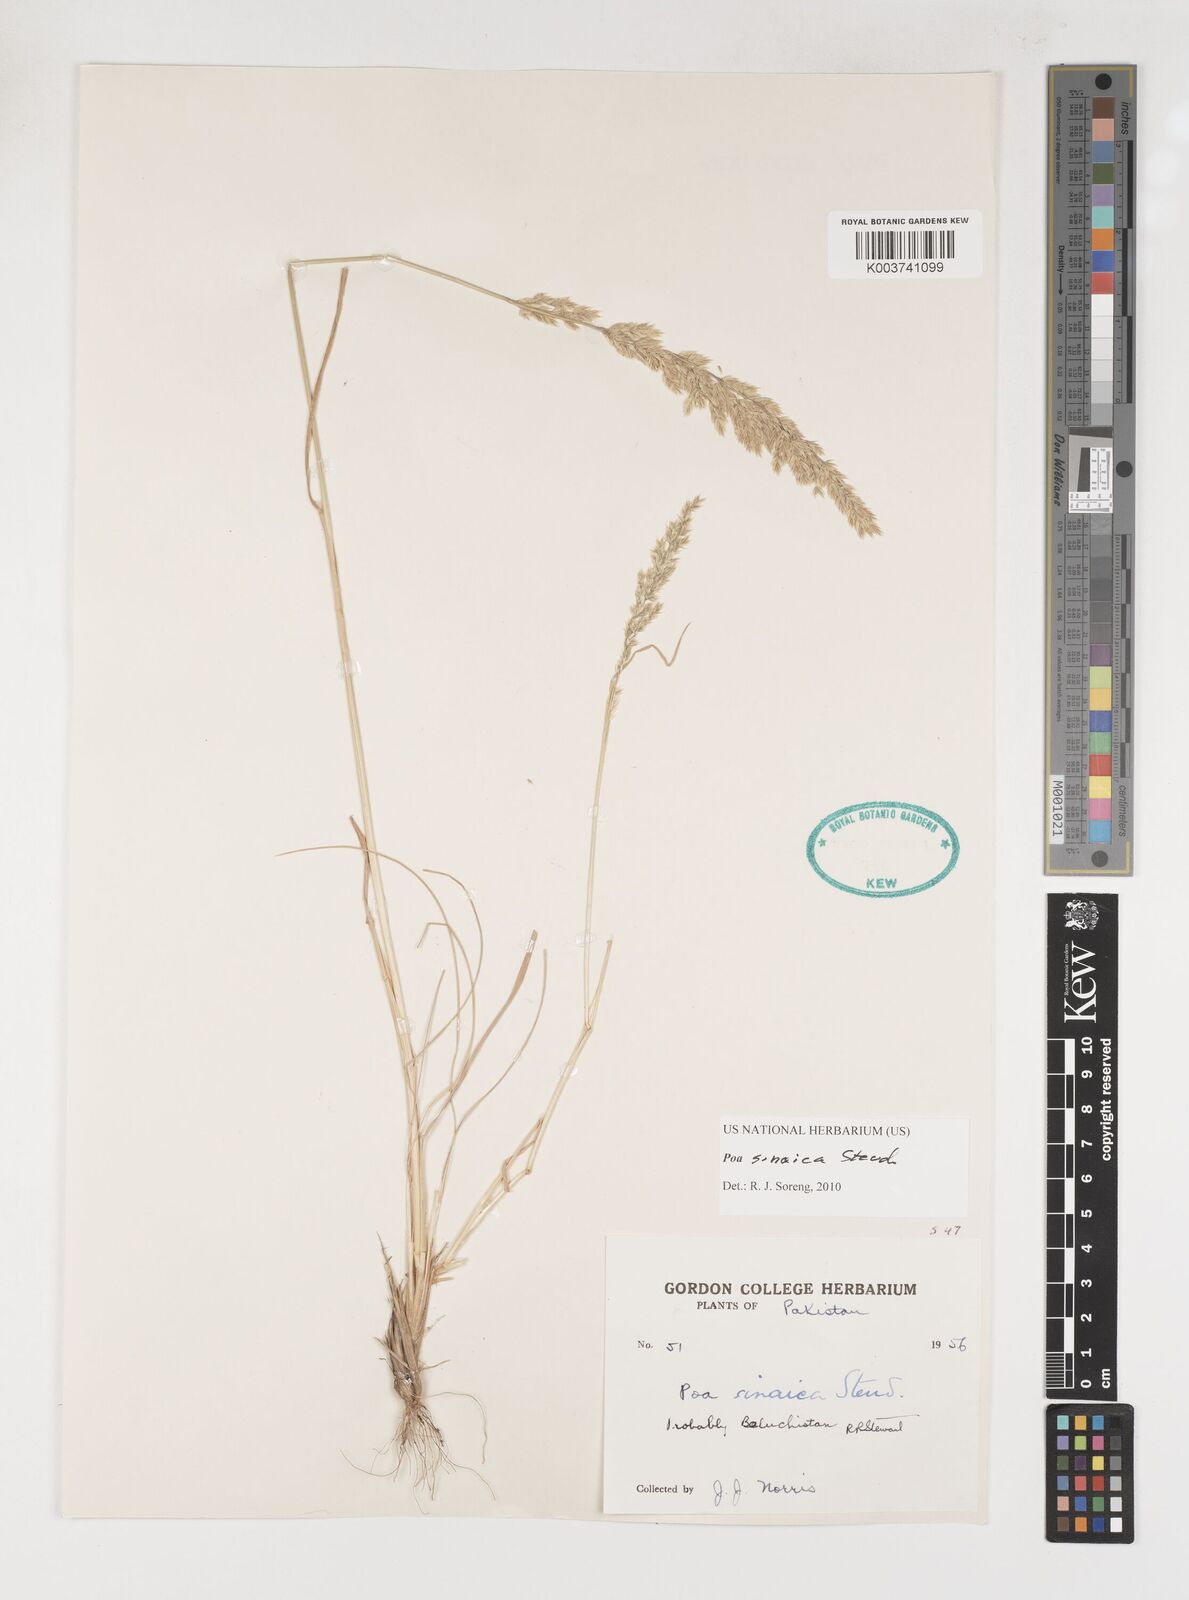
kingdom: Plantae
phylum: Tracheophyta
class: Liliopsida
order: Poales
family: Poaceae
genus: Poa
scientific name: Poa sinaica
